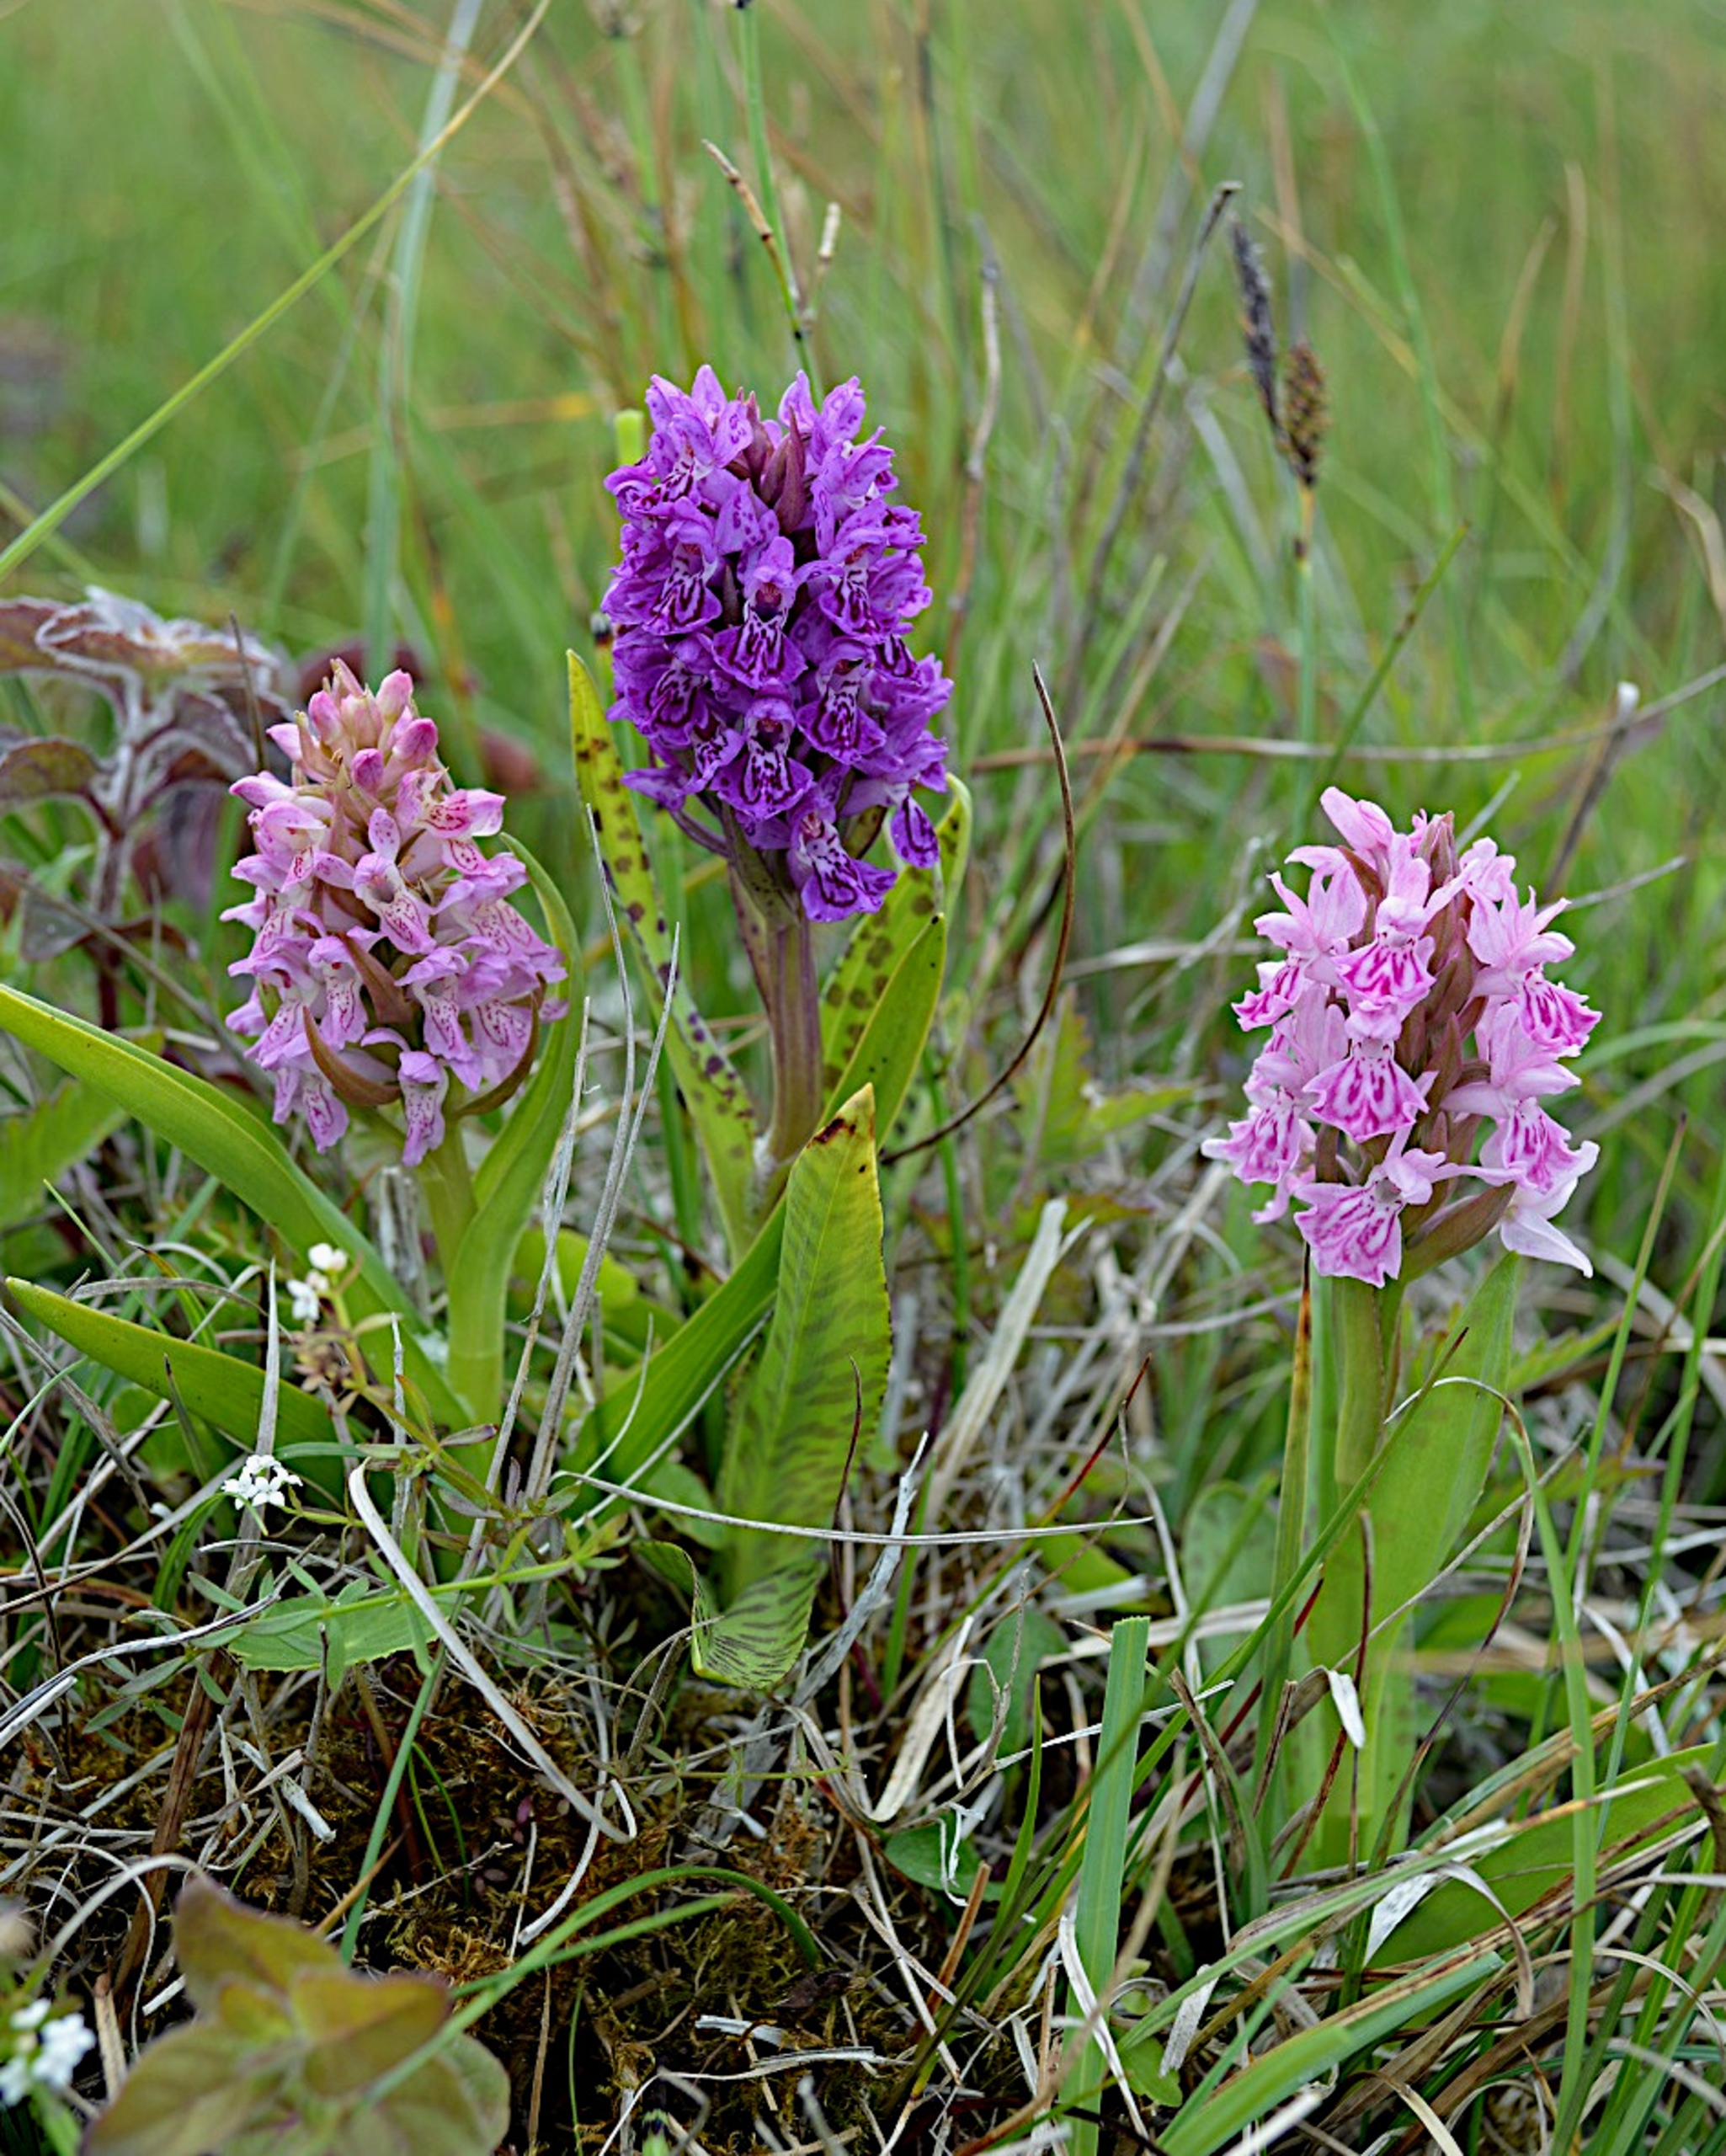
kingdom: Plantae
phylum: Tracheophyta
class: Liliopsida
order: Asparagales
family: Orchidaceae
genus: Dactylorhiza
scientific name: Dactylorhiza majalis
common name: Vendsyssel-gøgeurt
